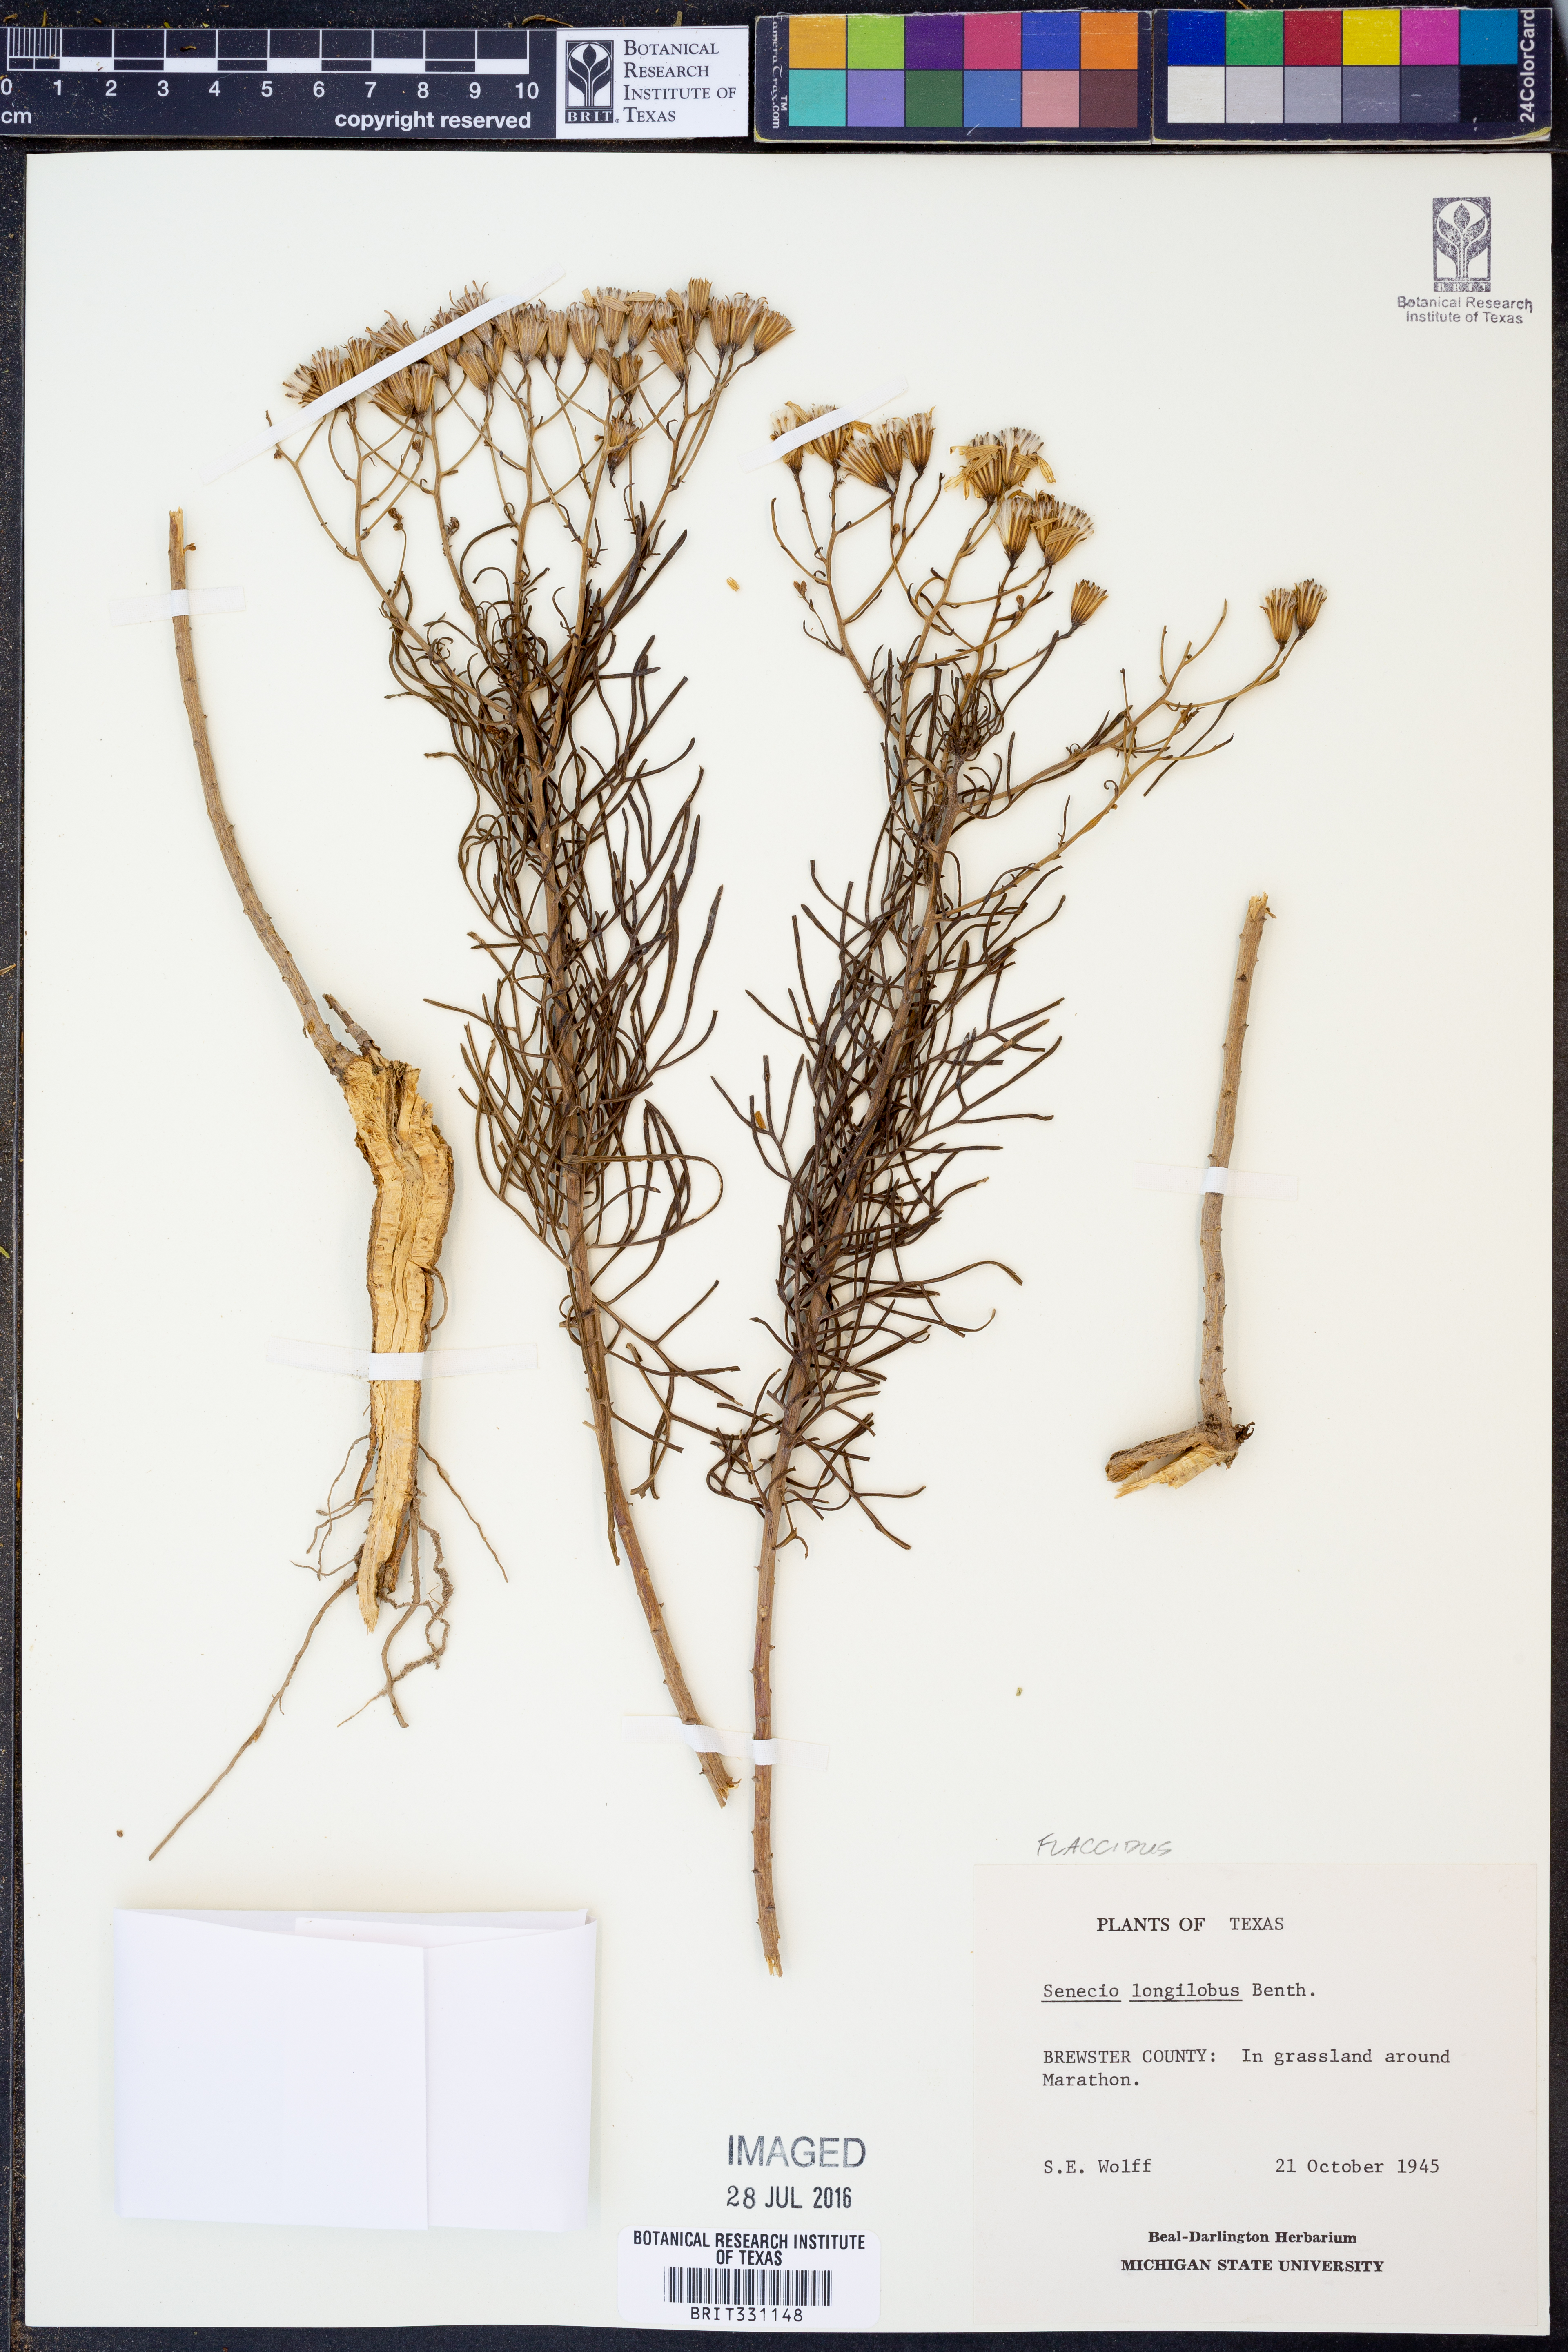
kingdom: Plantae
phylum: Tracheophyta
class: Magnoliopsida
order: Asterales
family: Asteraceae
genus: Senecio
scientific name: Senecio flaccidus
